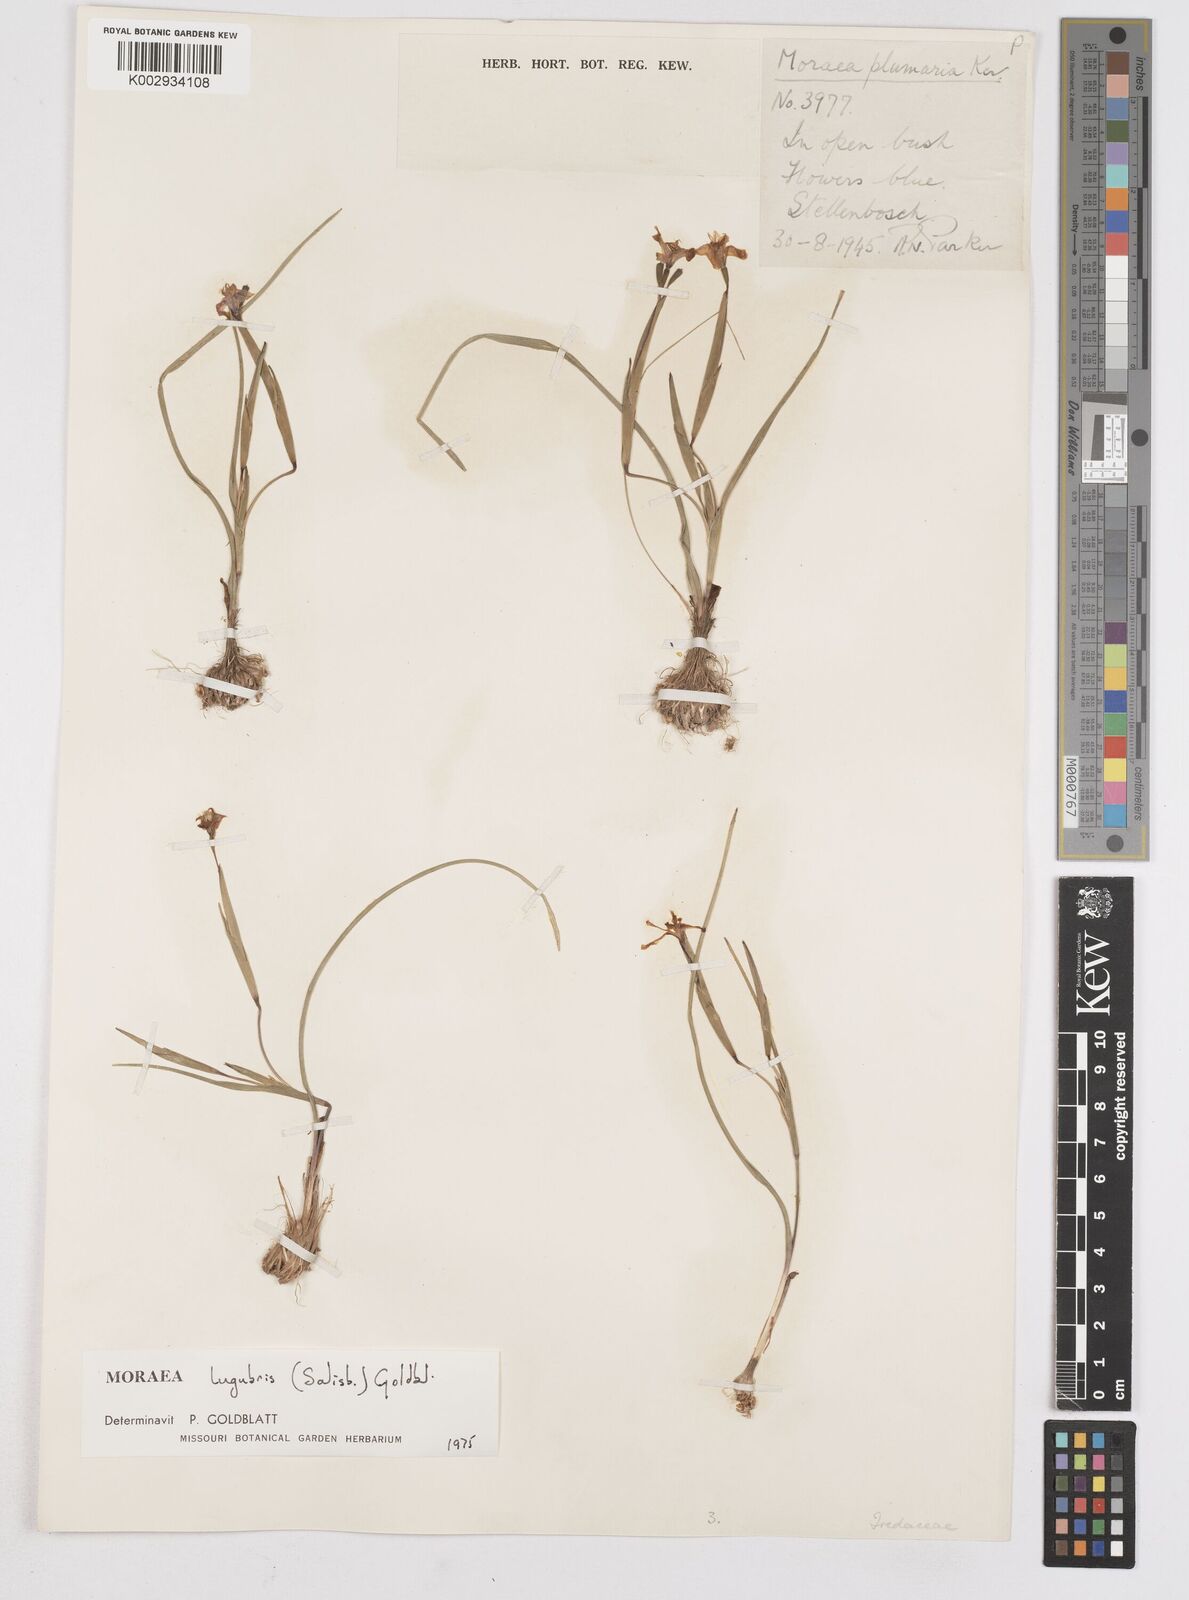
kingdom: Plantae
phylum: Tracheophyta
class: Liliopsida
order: Asparagales
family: Iridaceae
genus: Moraea
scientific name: Moraea lugubris
